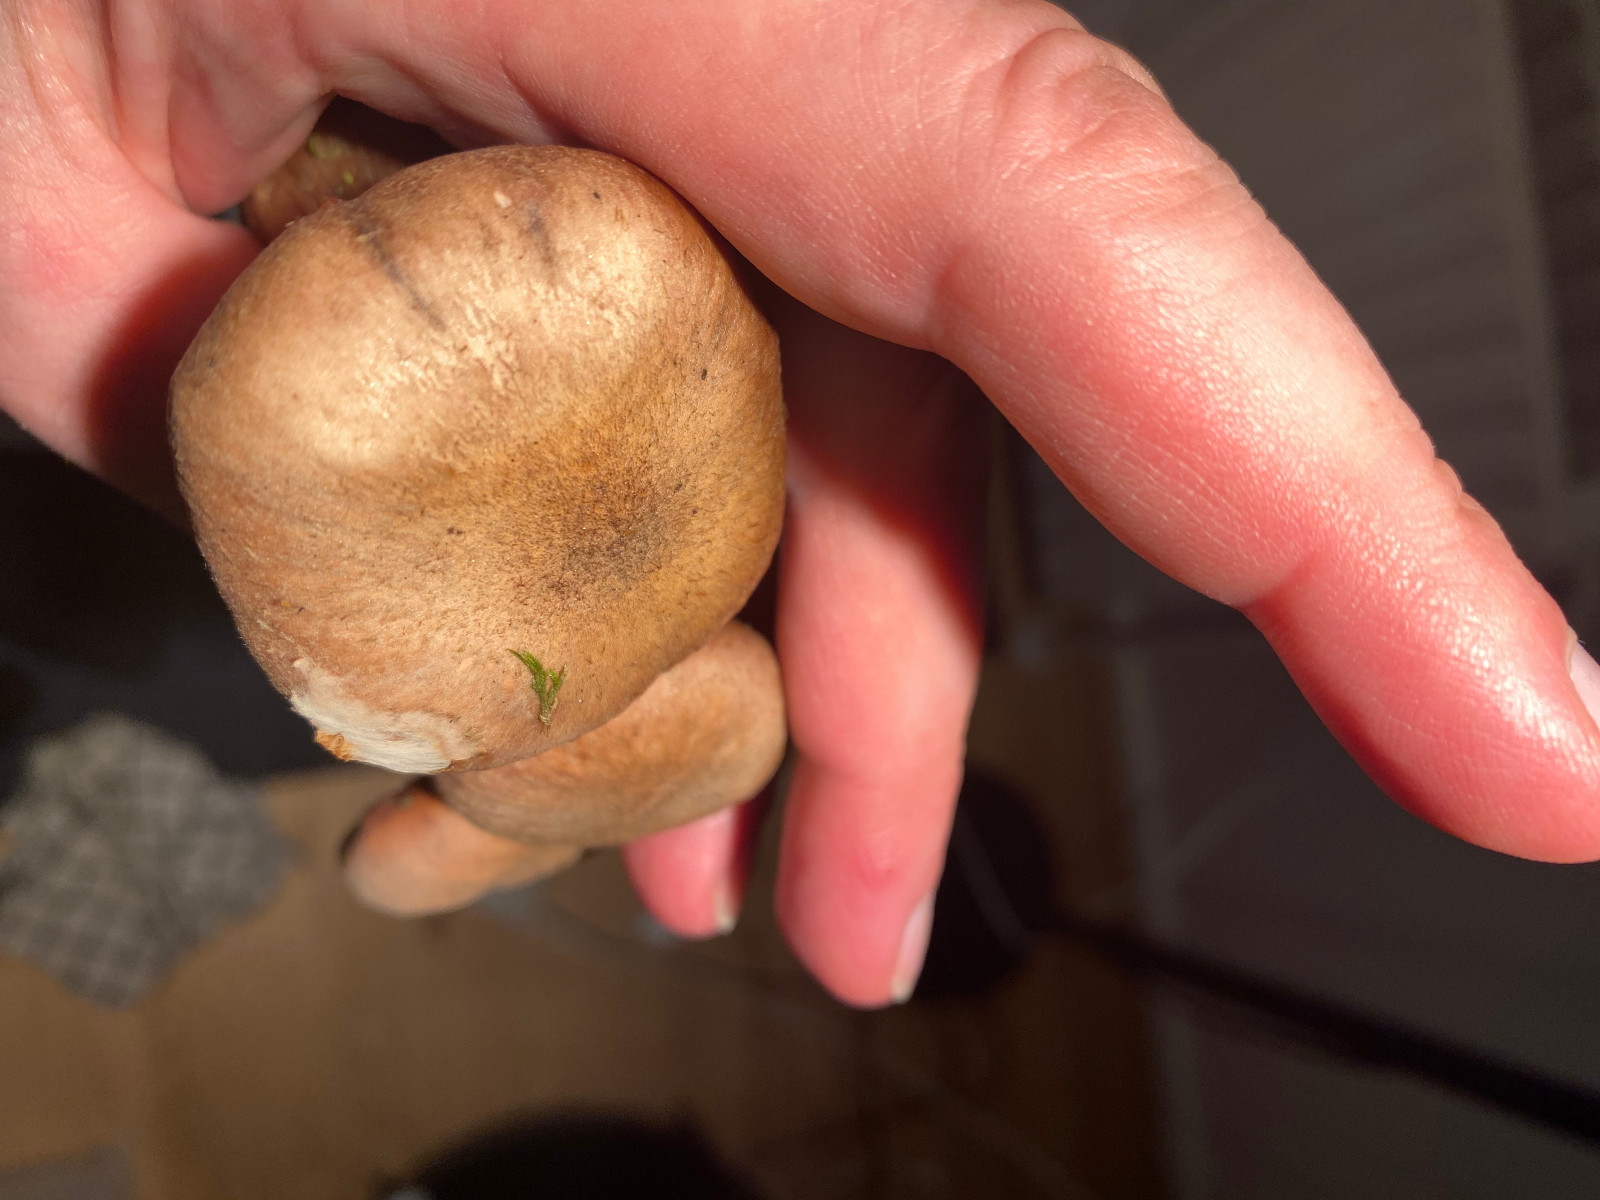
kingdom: Fungi
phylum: Basidiomycota
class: Agaricomycetes
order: Agaricales
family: Physalacriaceae
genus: Armillaria
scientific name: Armillaria lutea
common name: køllestokket honningsvamp
